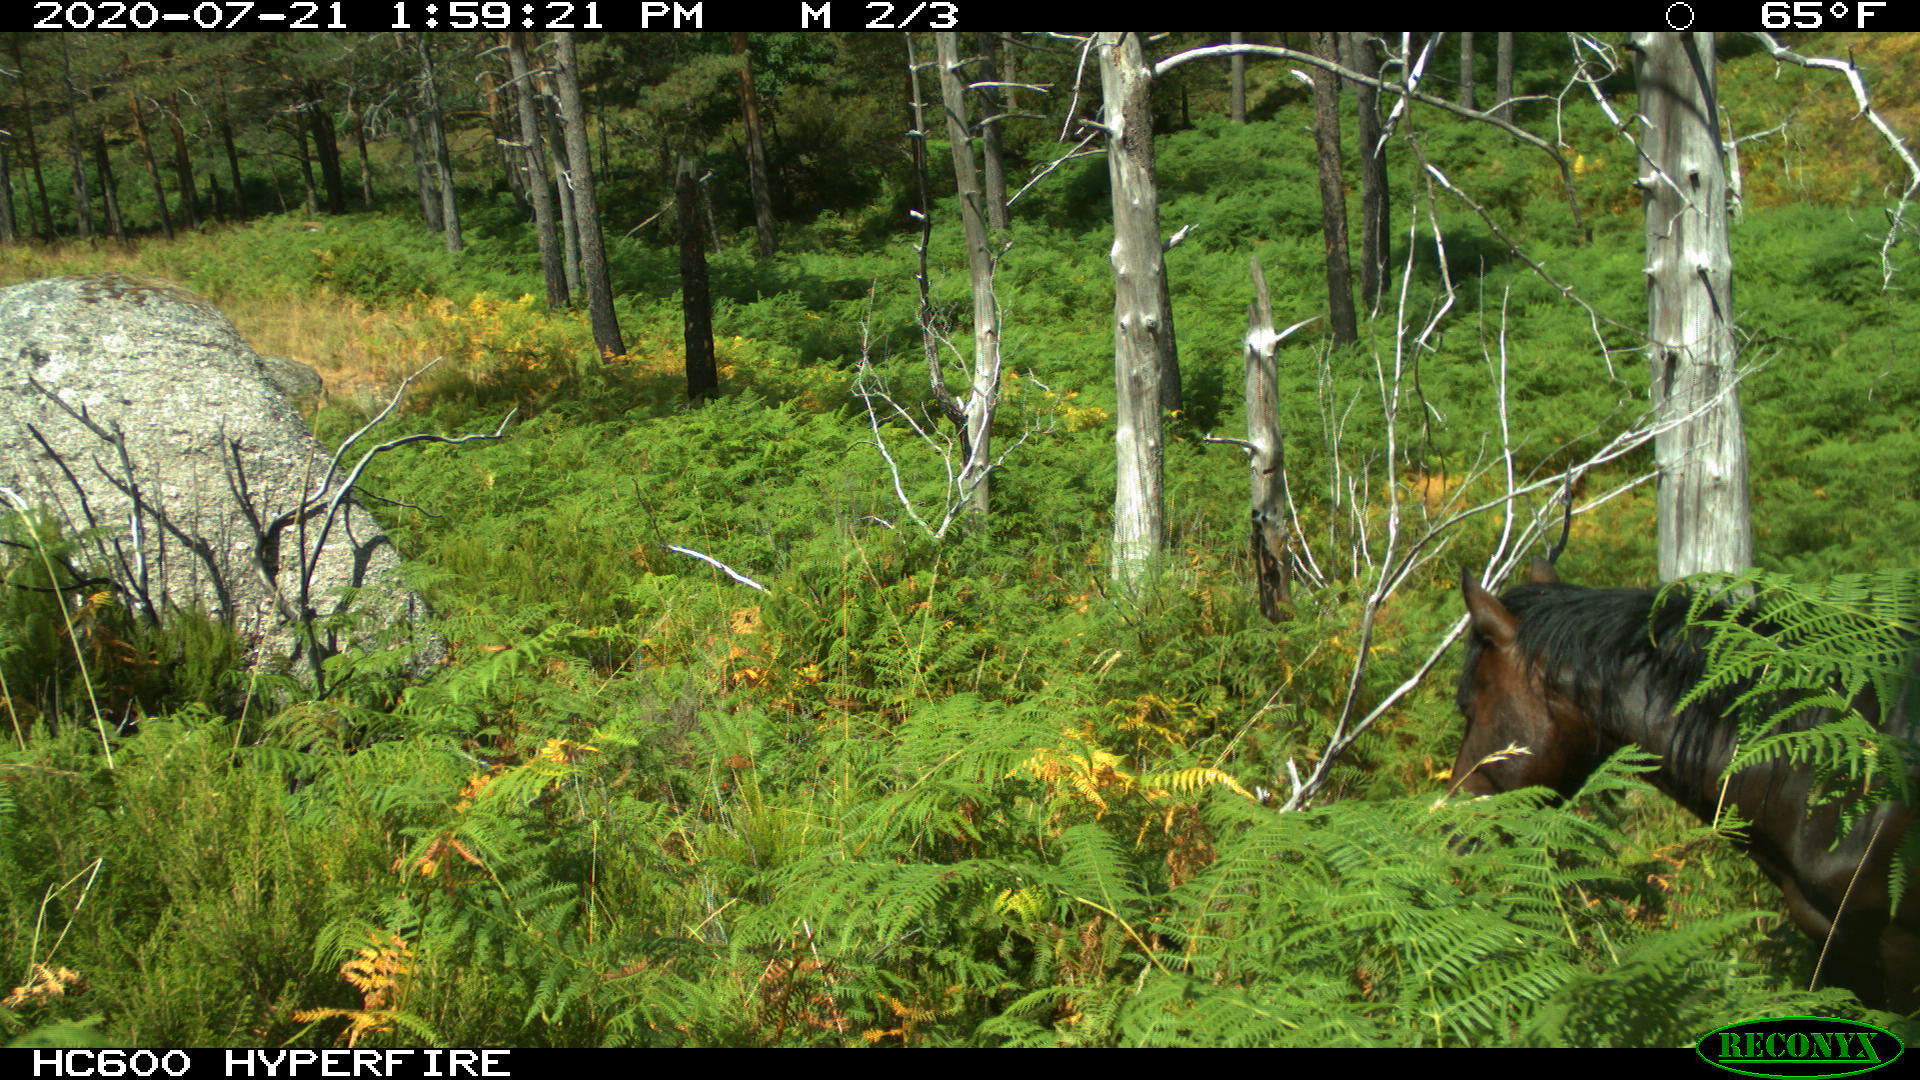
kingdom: Animalia
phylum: Chordata
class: Mammalia
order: Perissodactyla
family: Equidae
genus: Equus
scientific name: Equus caballus
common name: Horse
